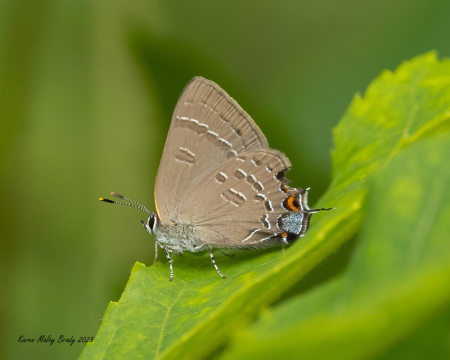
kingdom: Animalia
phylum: Arthropoda
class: Insecta
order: Lepidoptera
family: Lycaenidae
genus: Satyrium
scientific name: Satyrium calanus
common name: Banded Hairstreak
